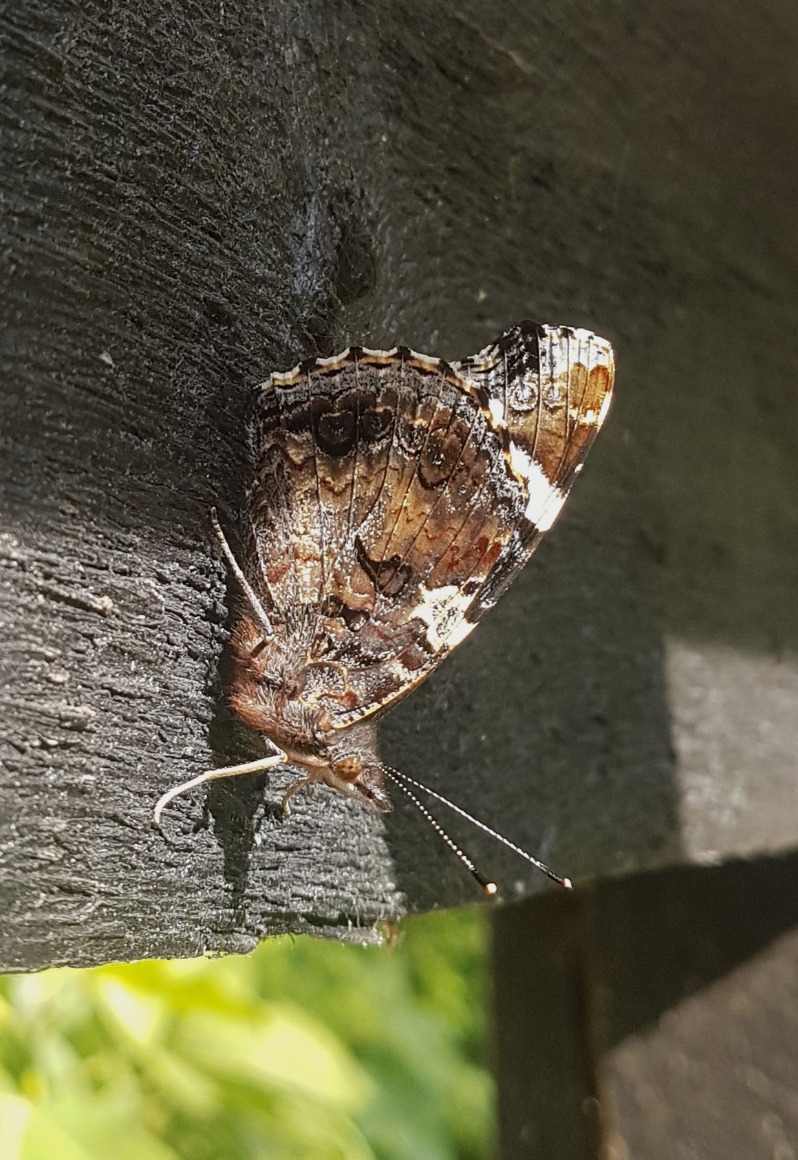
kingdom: Animalia
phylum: Arthropoda
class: Insecta
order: Lepidoptera
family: Nymphalidae
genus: Vanessa
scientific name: Vanessa atalanta
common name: Admiral
